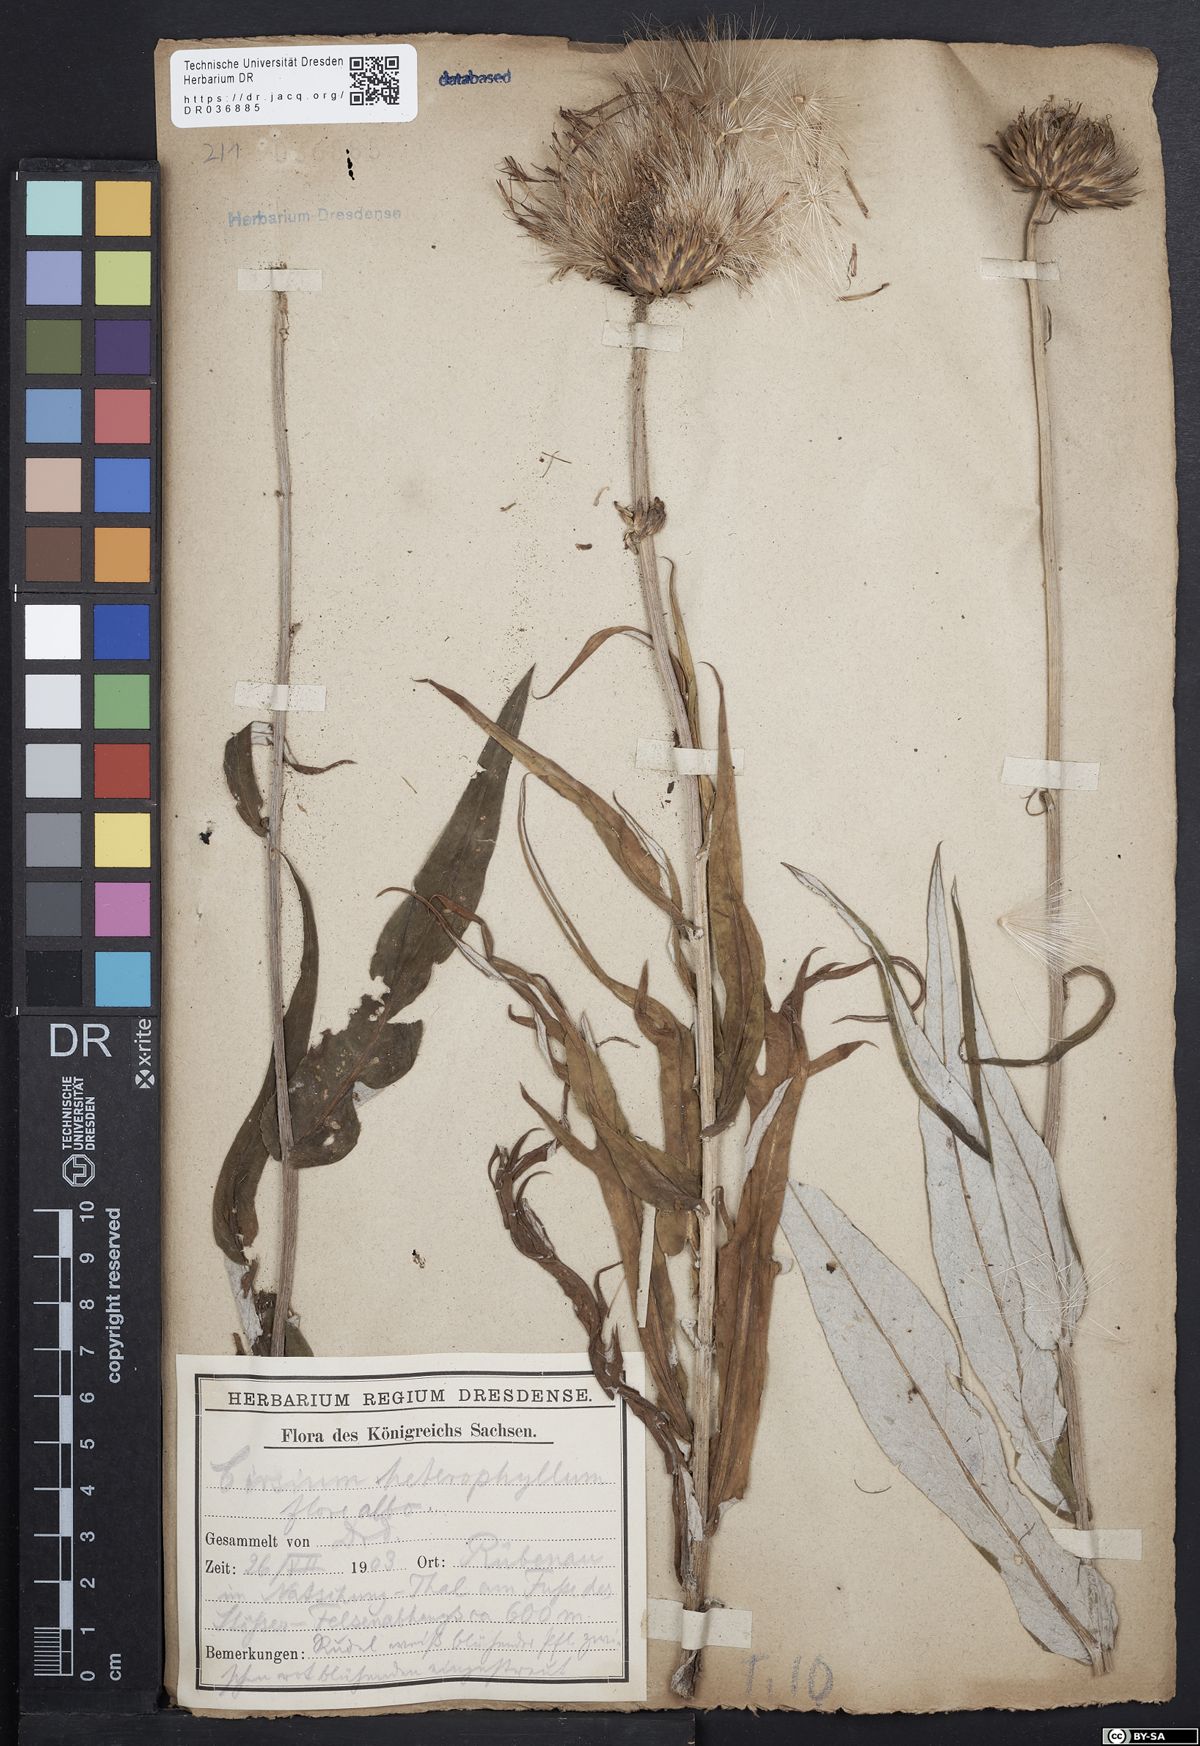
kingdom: Plantae
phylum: Tracheophyta
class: Magnoliopsida
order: Asterales
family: Asteraceae
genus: Cirsium
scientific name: Cirsium helenioides
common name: Melancholy thistle
